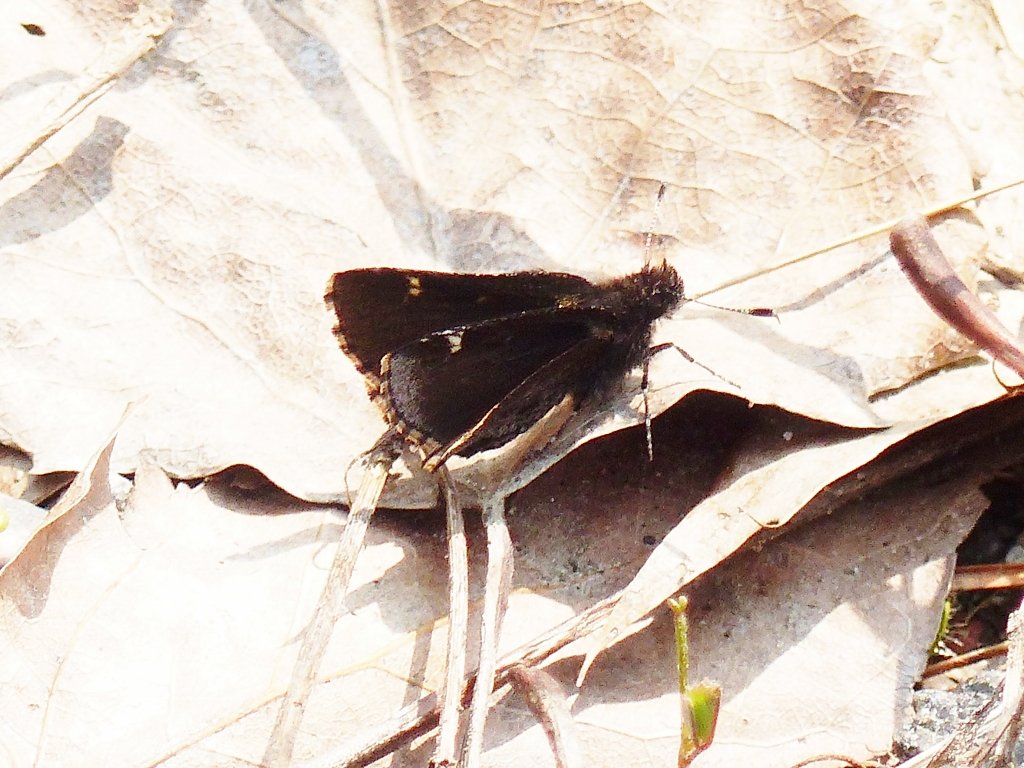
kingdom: Animalia
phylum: Arthropoda
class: Insecta
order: Lepidoptera
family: Hesperiidae
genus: Mastor
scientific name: Mastor vialis
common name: Common Roadside-Skipper
